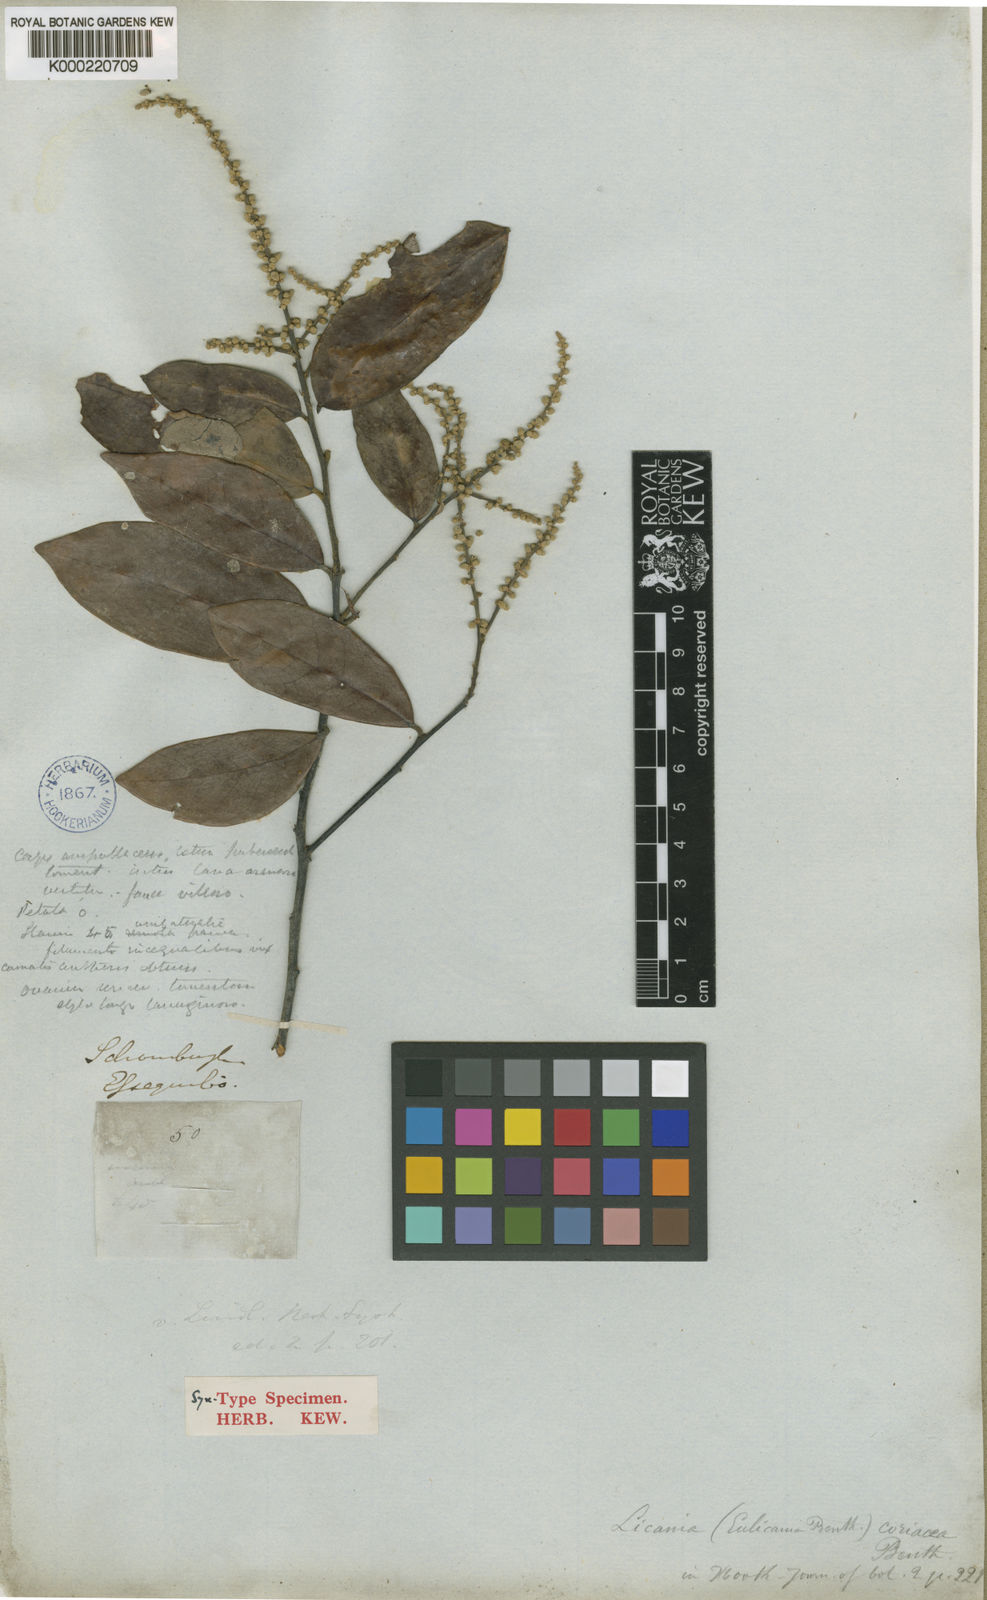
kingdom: Plantae
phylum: Tracheophyta
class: Magnoliopsida
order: Malpighiales
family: Chrysobalanaceae
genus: Licania
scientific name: Licania coriacea
